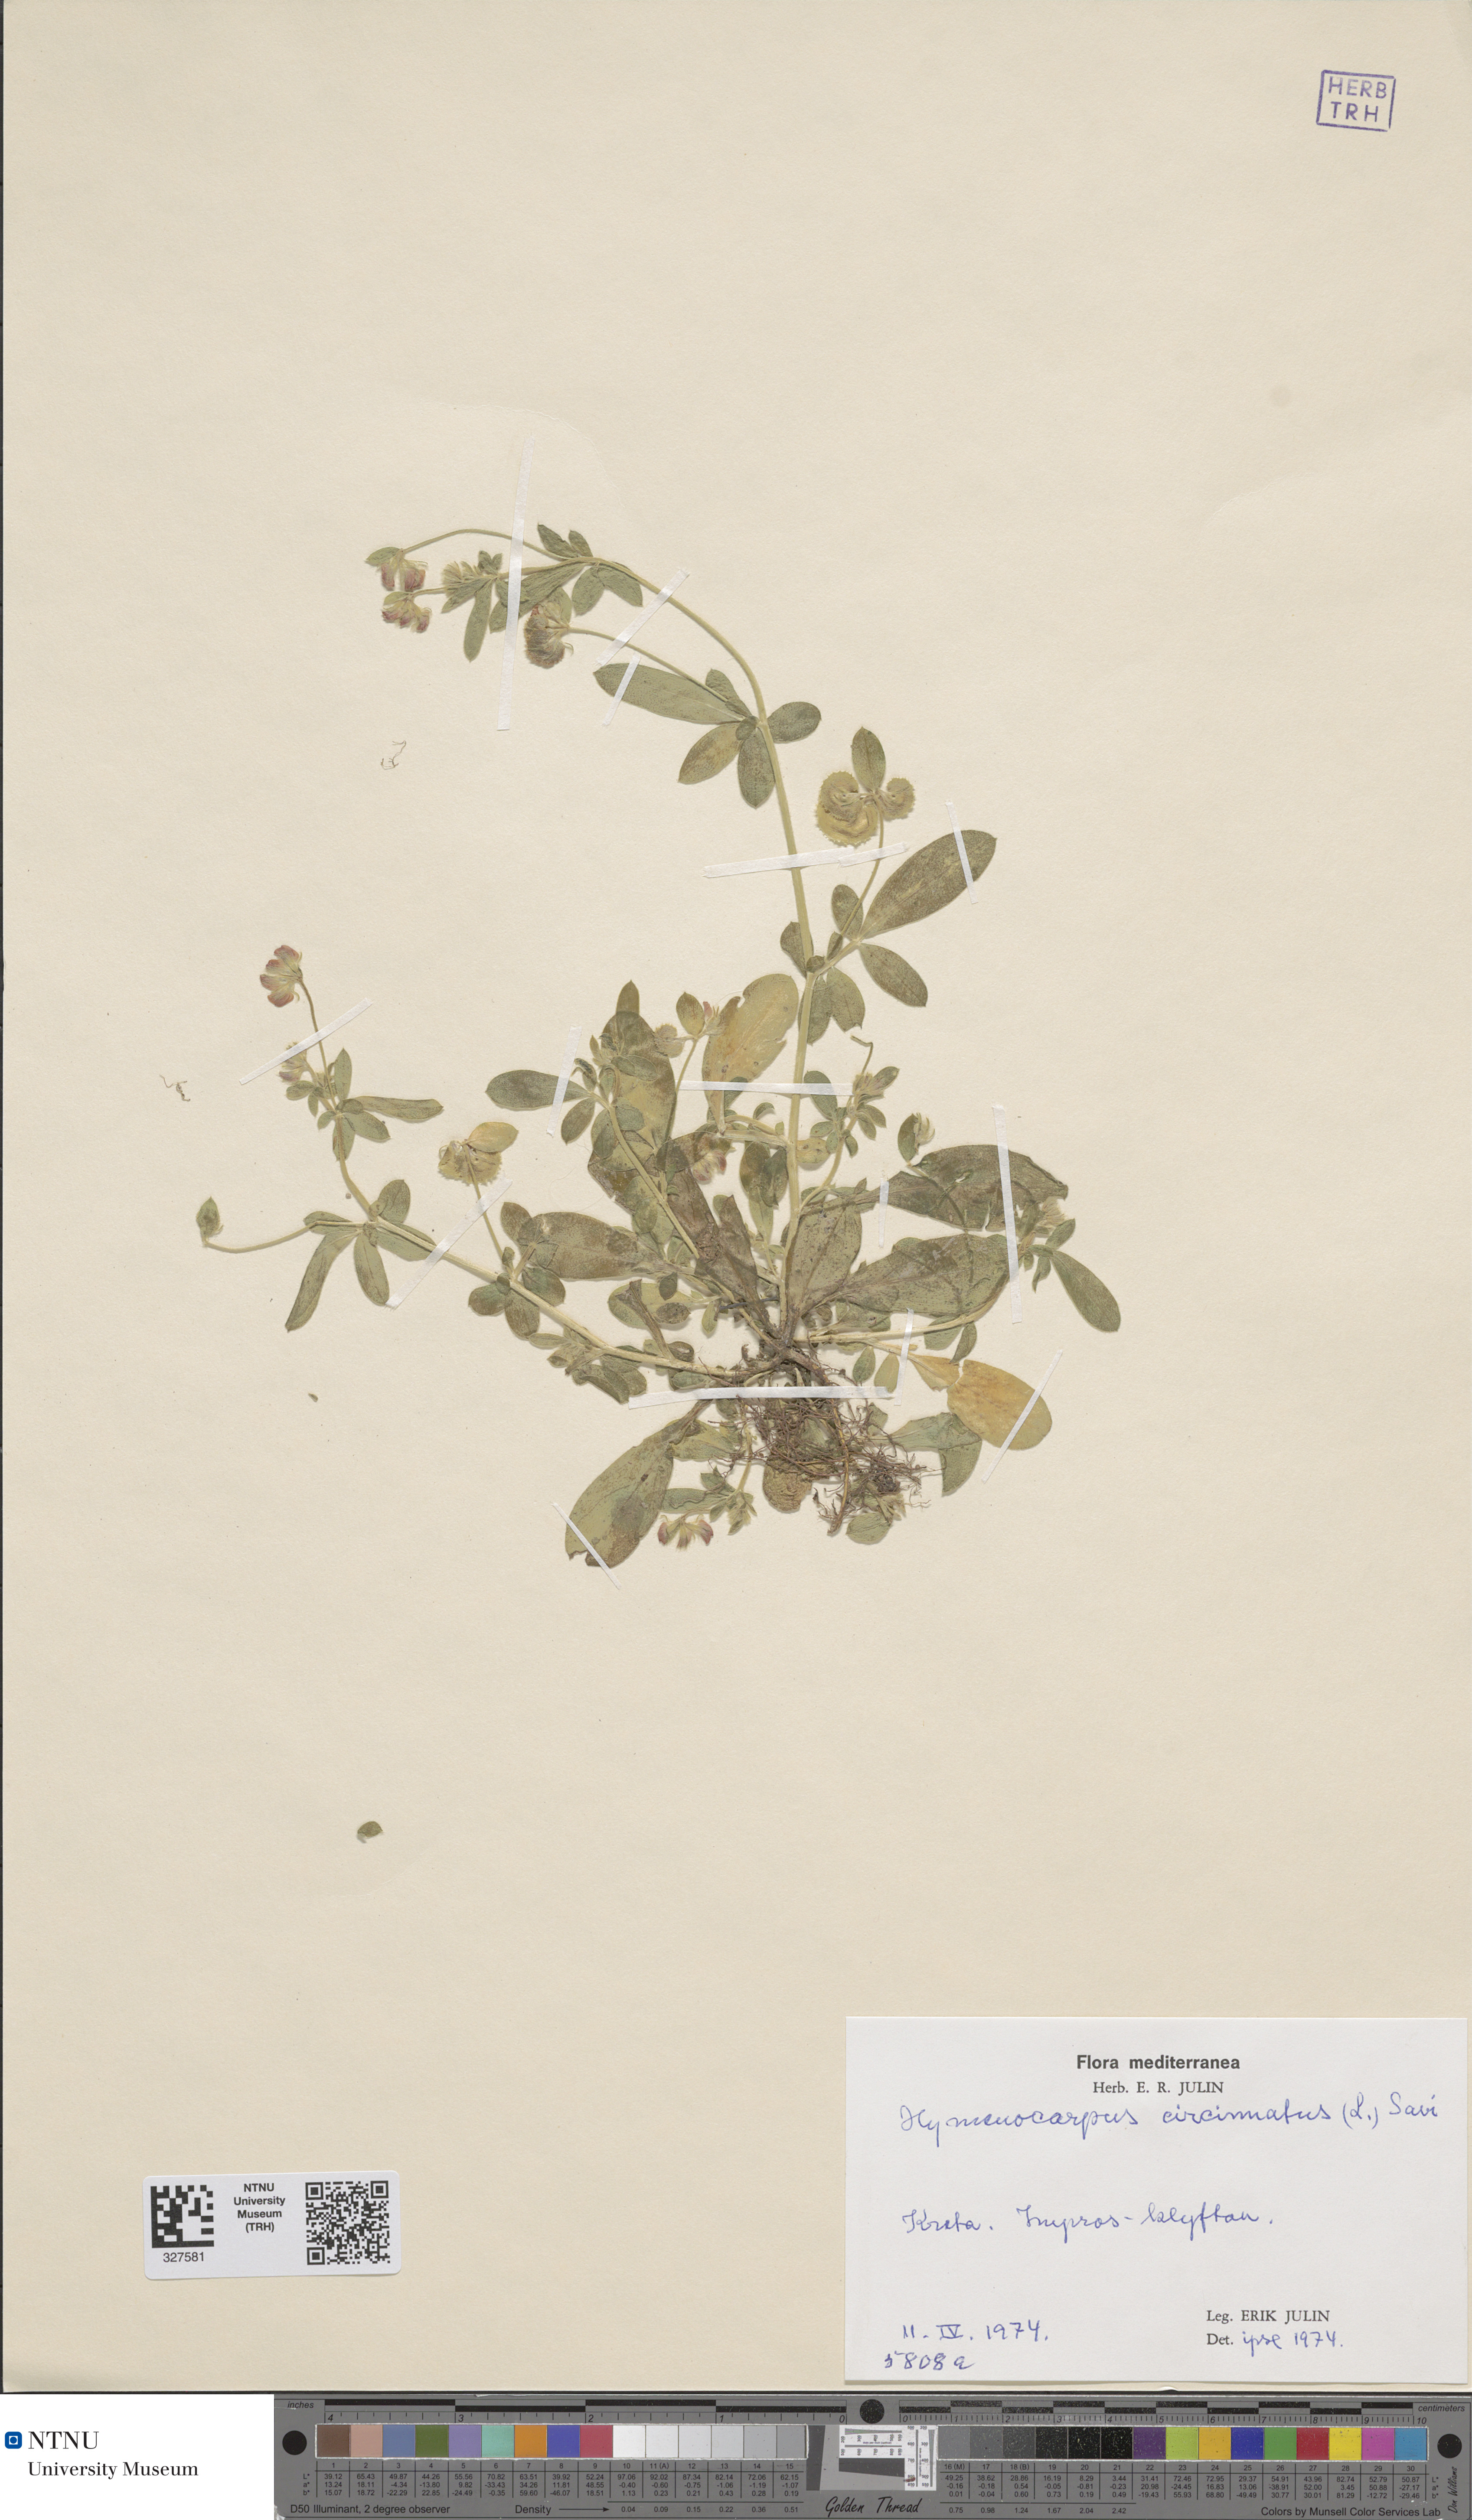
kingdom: Plantae
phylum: Tracheophyta
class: Magnoliopsida
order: Fabales
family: Fabaceae
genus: Anthyllis
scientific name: Anthyllis circinnata
